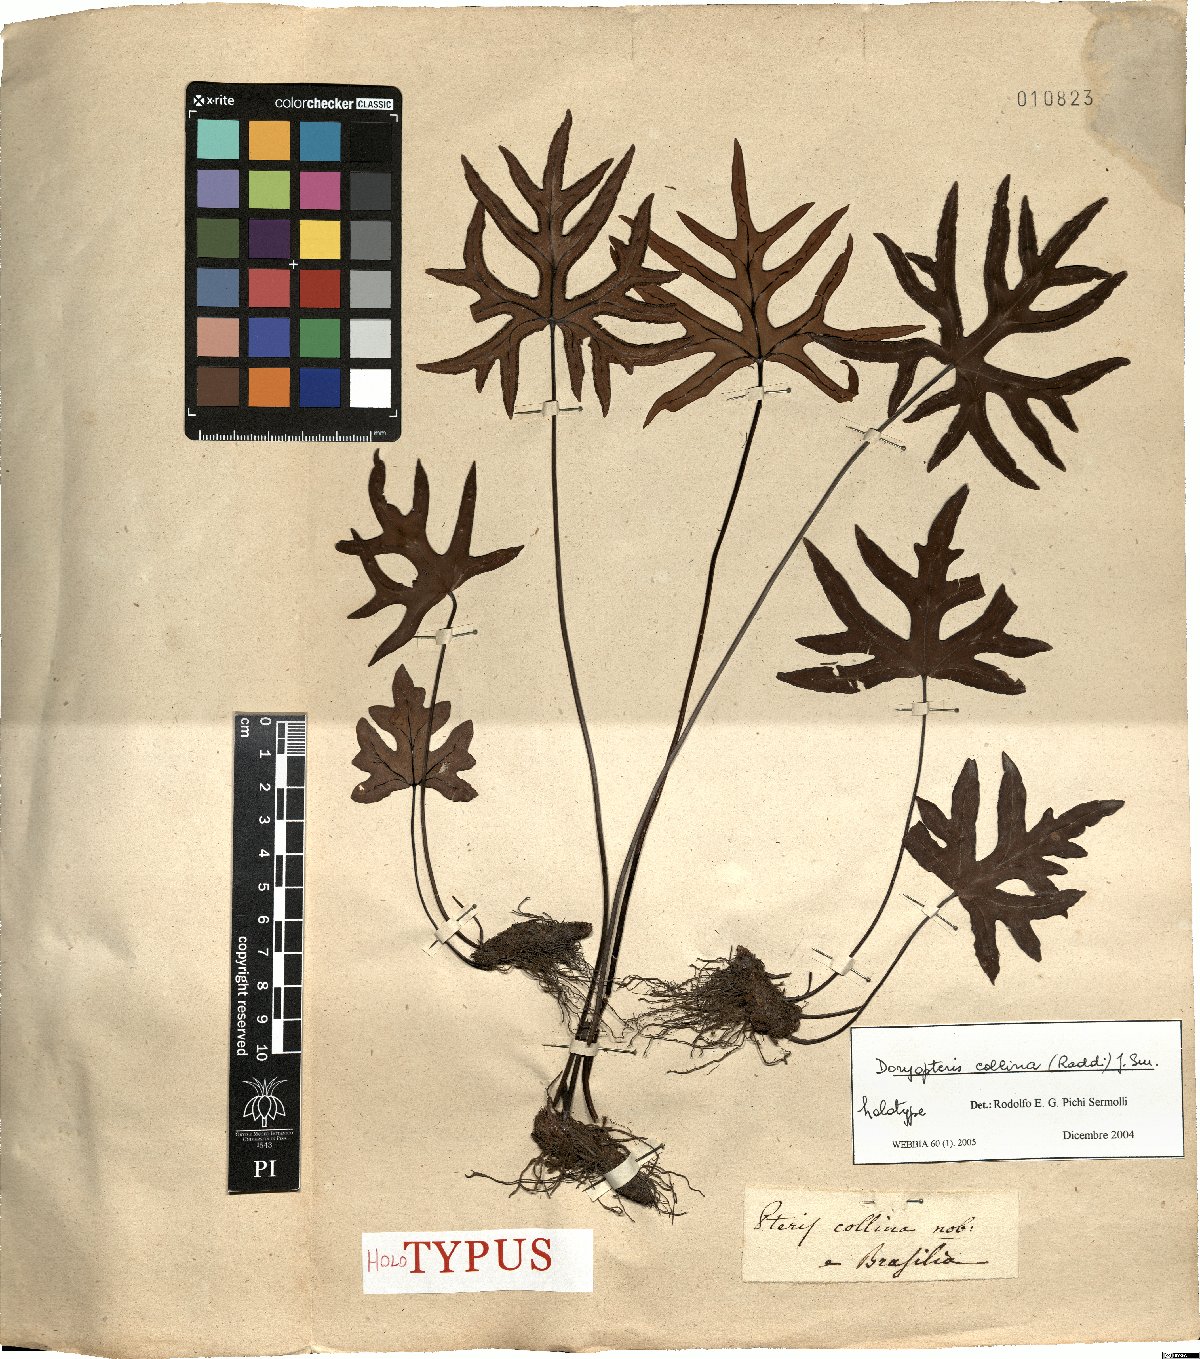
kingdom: Plantae
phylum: Tracheophyta
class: Polypodiopsida
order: Polypodiales
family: Pteridaceae
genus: Doryopteris
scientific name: Doryopteris collina
